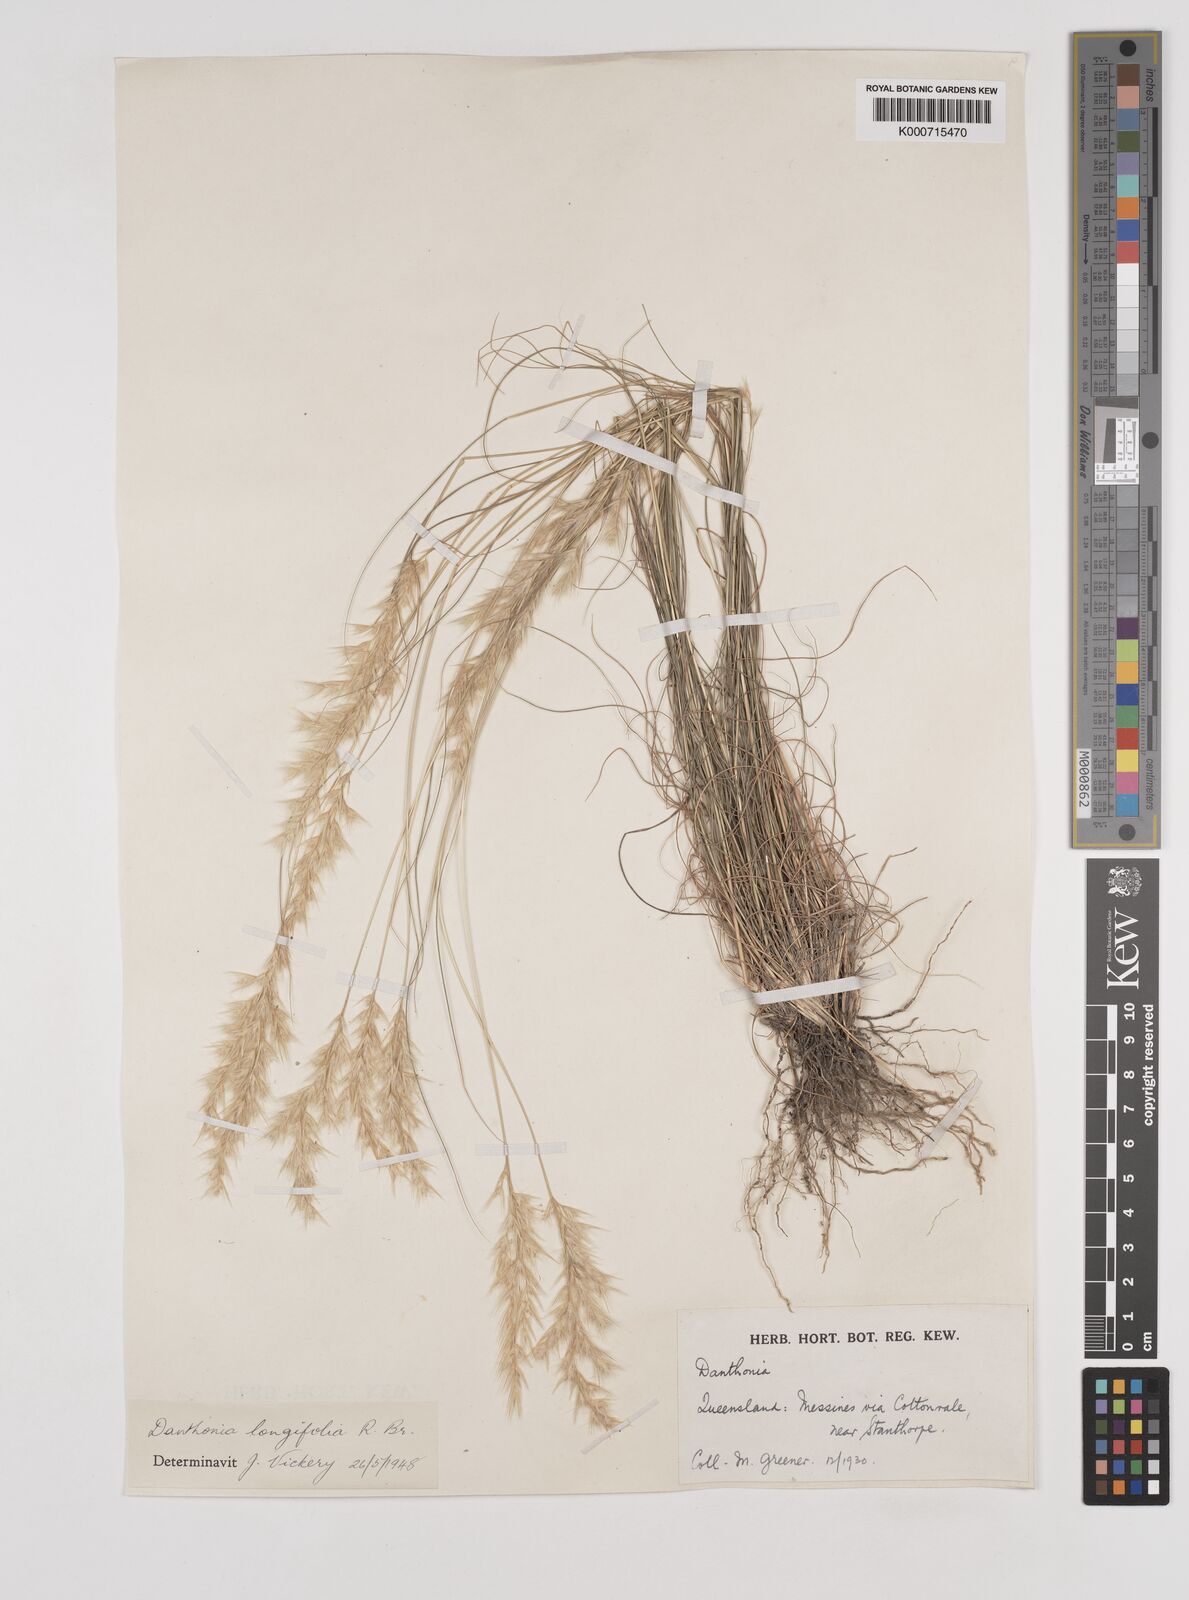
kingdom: Plantae
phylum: Tracheophyta
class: Liliopsida
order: Poales
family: Poaceae
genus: Rytidosperma
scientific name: Rytidosperma longifolium
